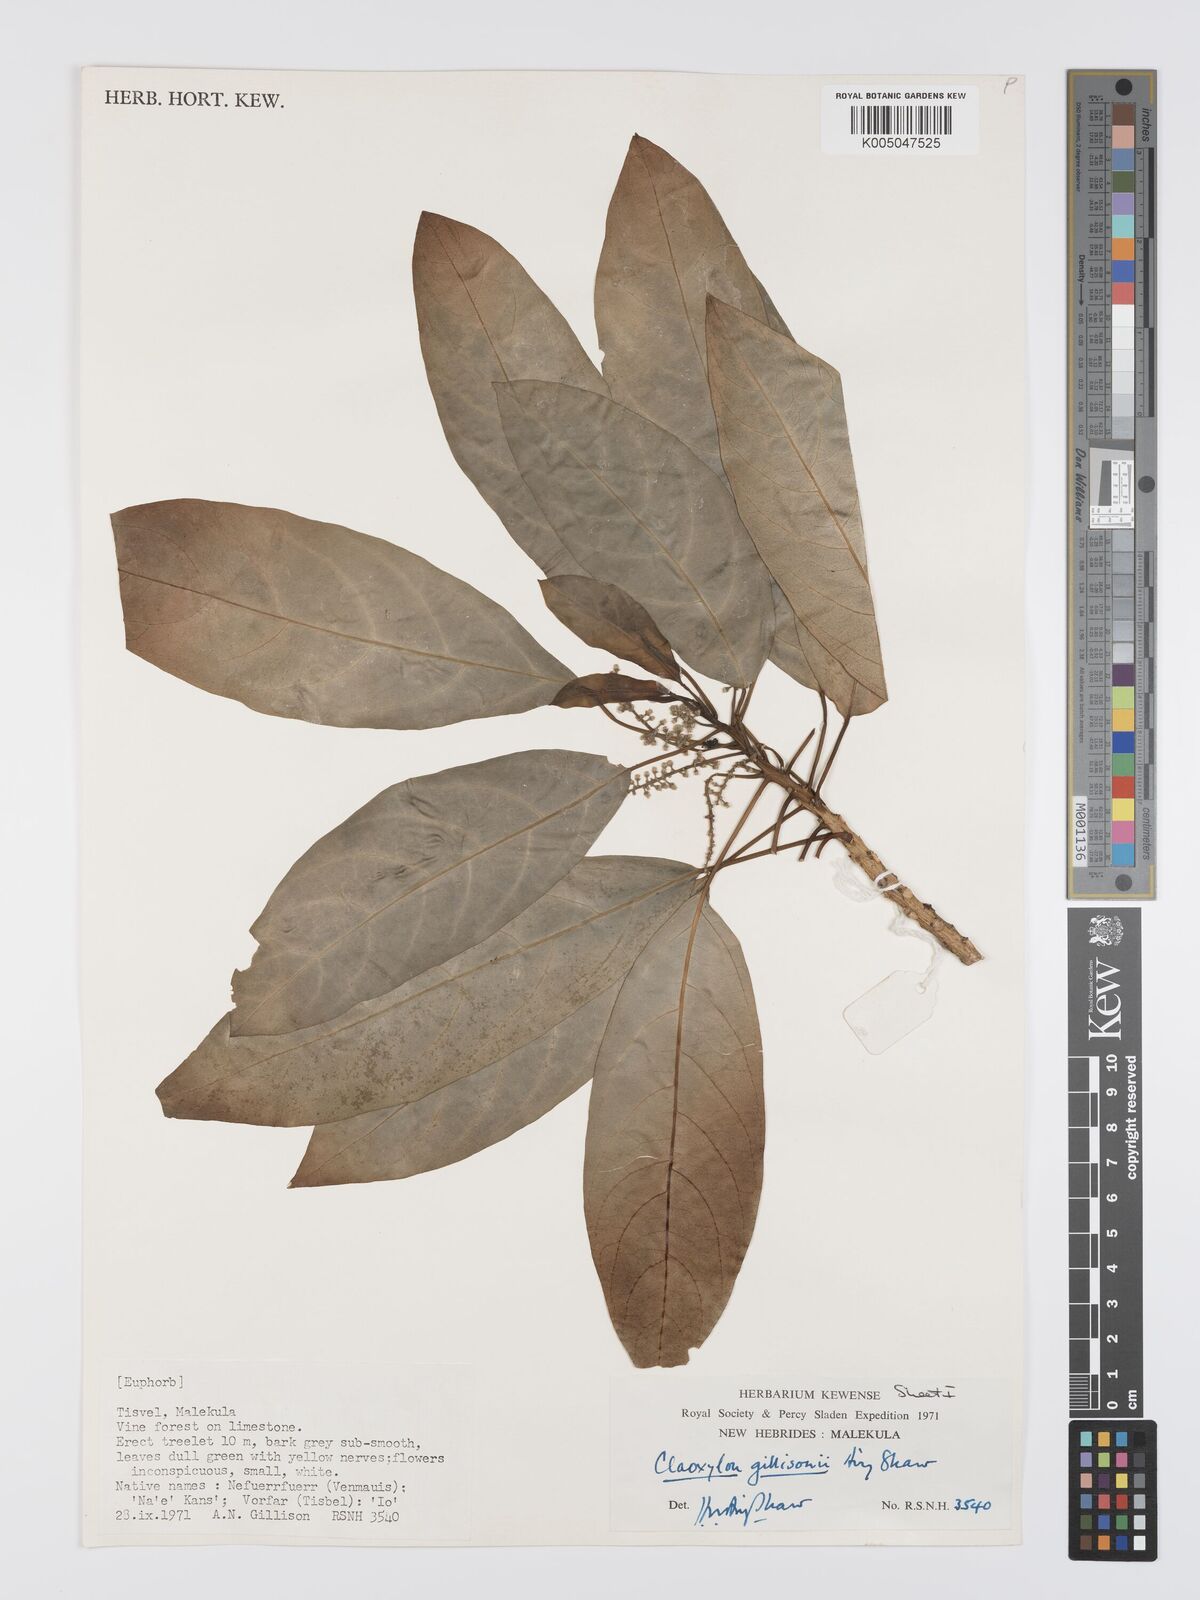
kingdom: Plantae
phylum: Tracheophyta
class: Magnoliopsida
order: Malpighiales
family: Euphorbiaceae
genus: Claoxylon
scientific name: Claoxylon gillisonii
